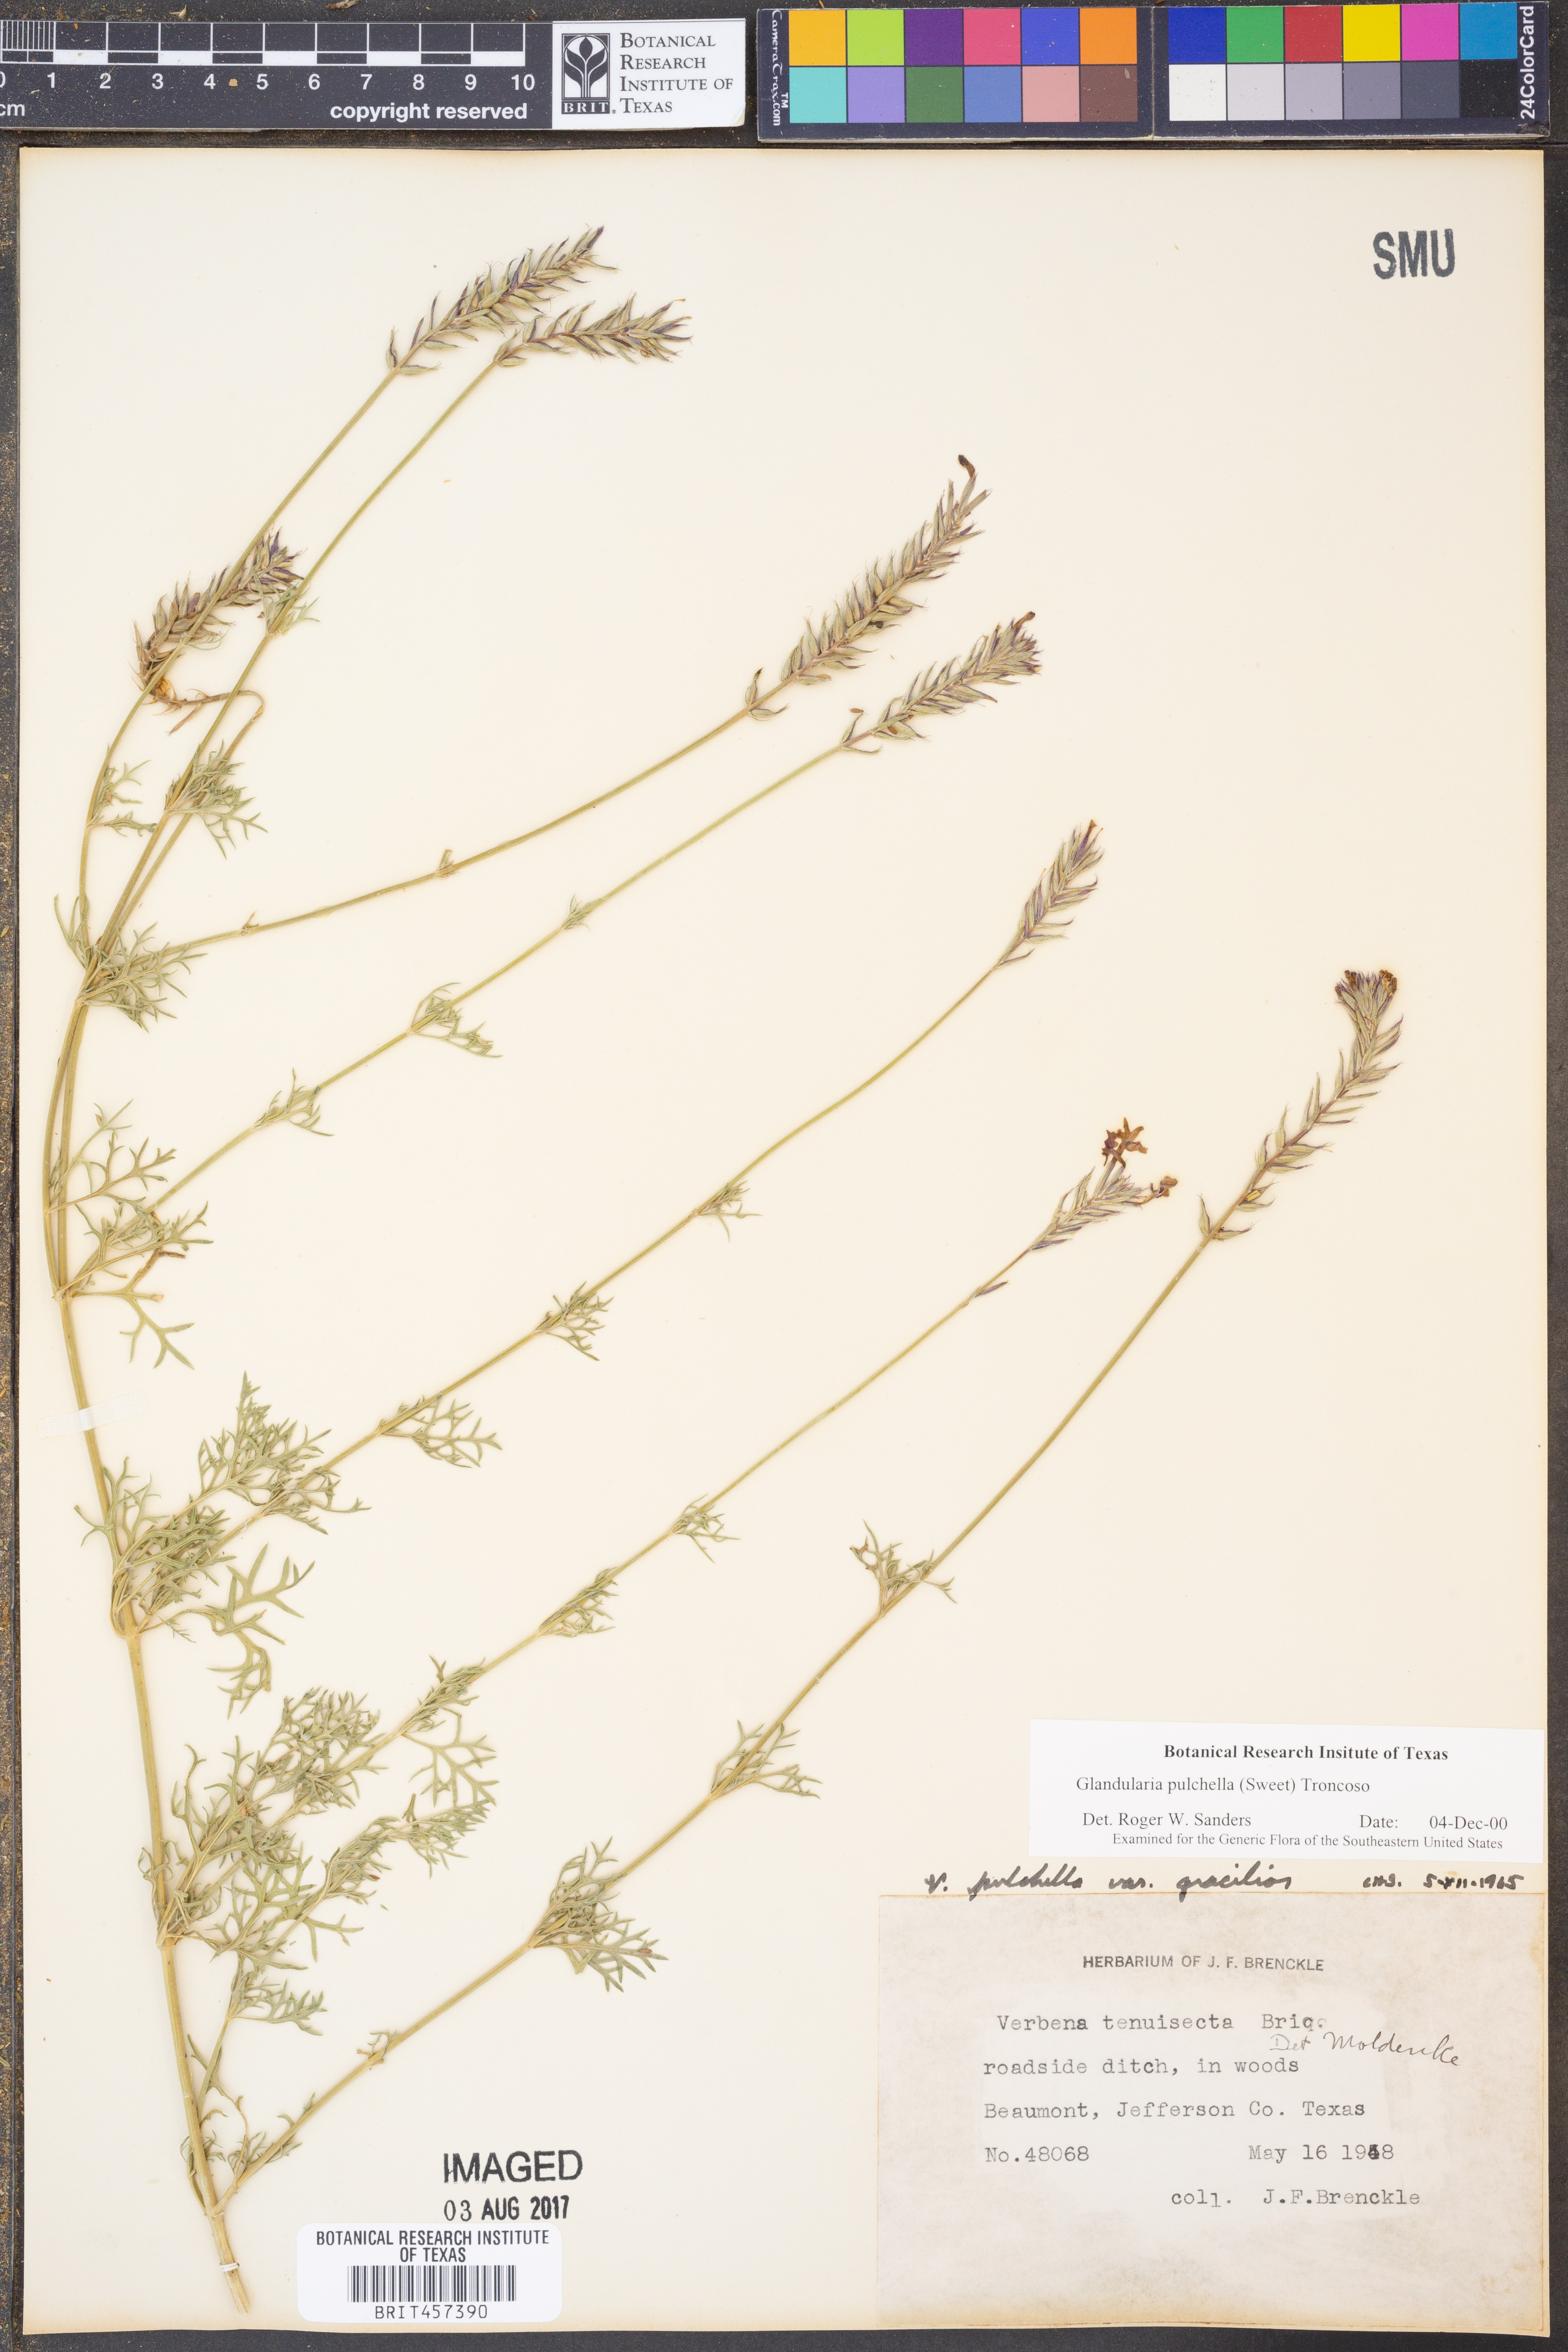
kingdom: Plantae
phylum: Tracheophyta
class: Magnoliopsida
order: Lamiales
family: Verbenaceae
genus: Verbena
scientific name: Verbena tenera
